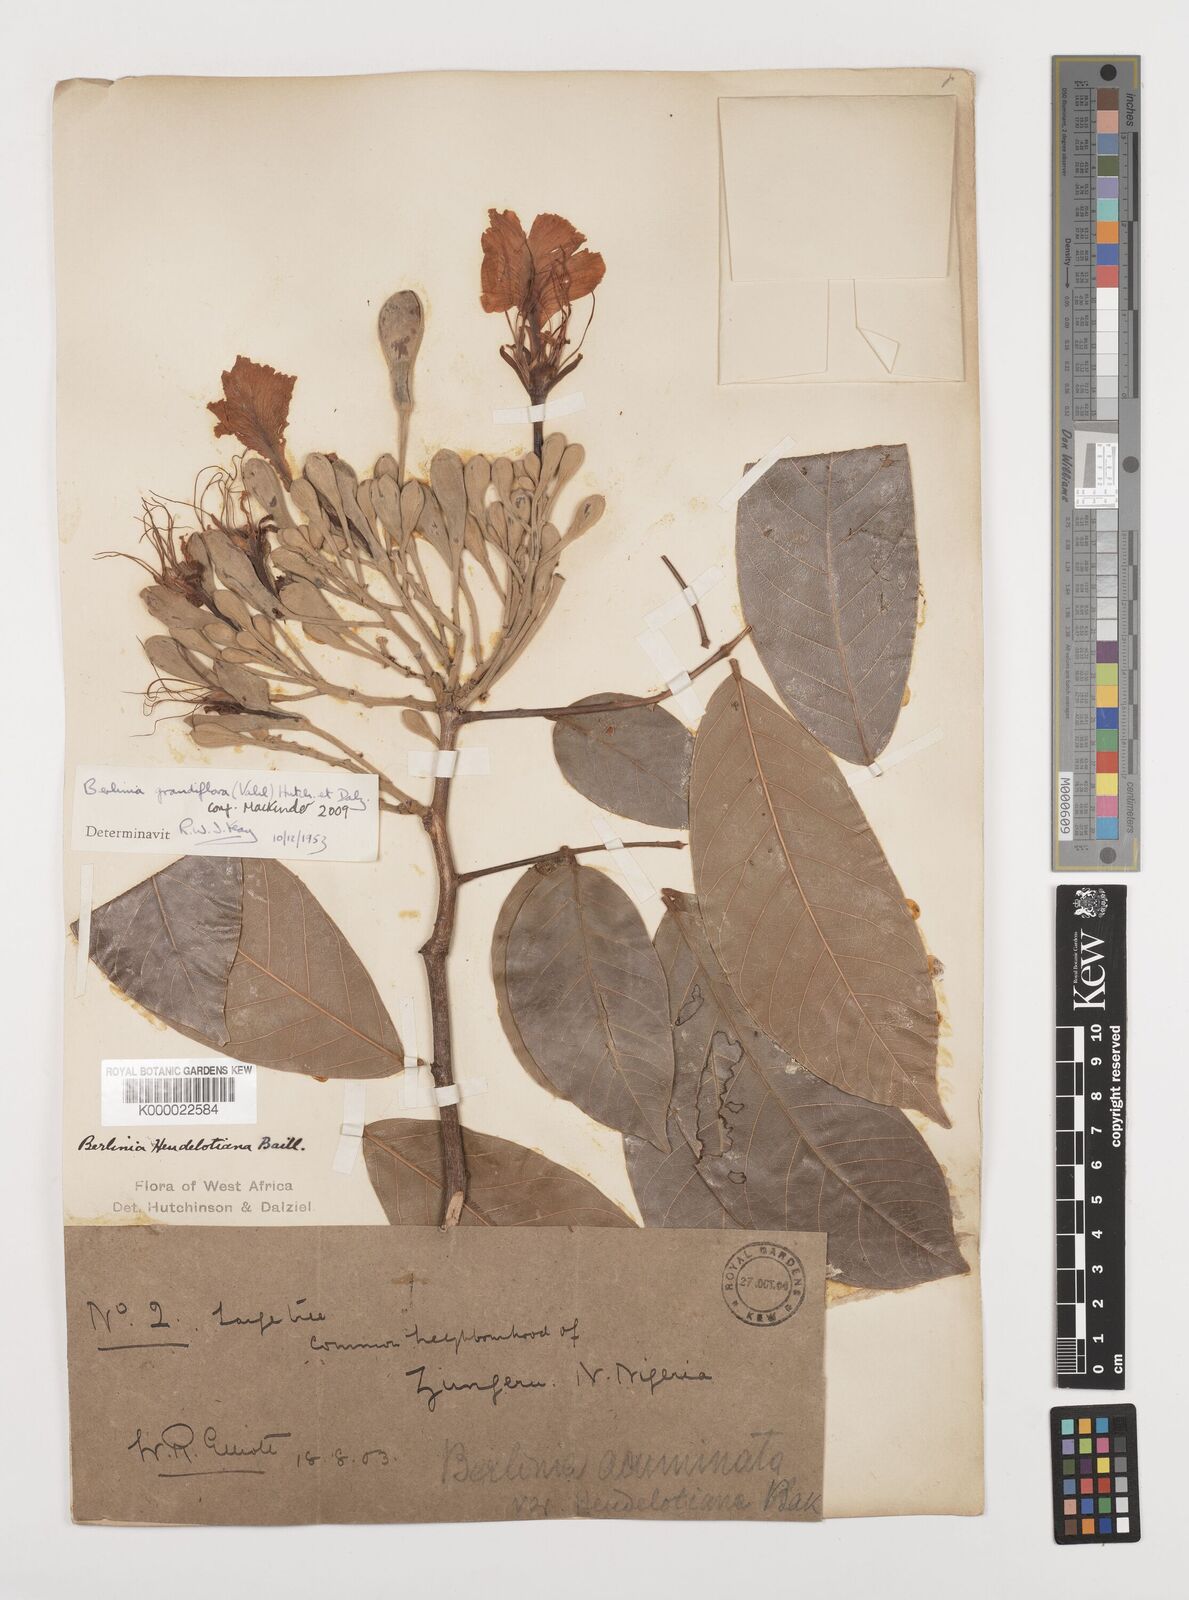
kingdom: Plantae
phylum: Tracheophyta
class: Magnoliopsida
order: Fabales
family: Fabaceae
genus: Berlinia
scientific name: Berlinia grandiflora
